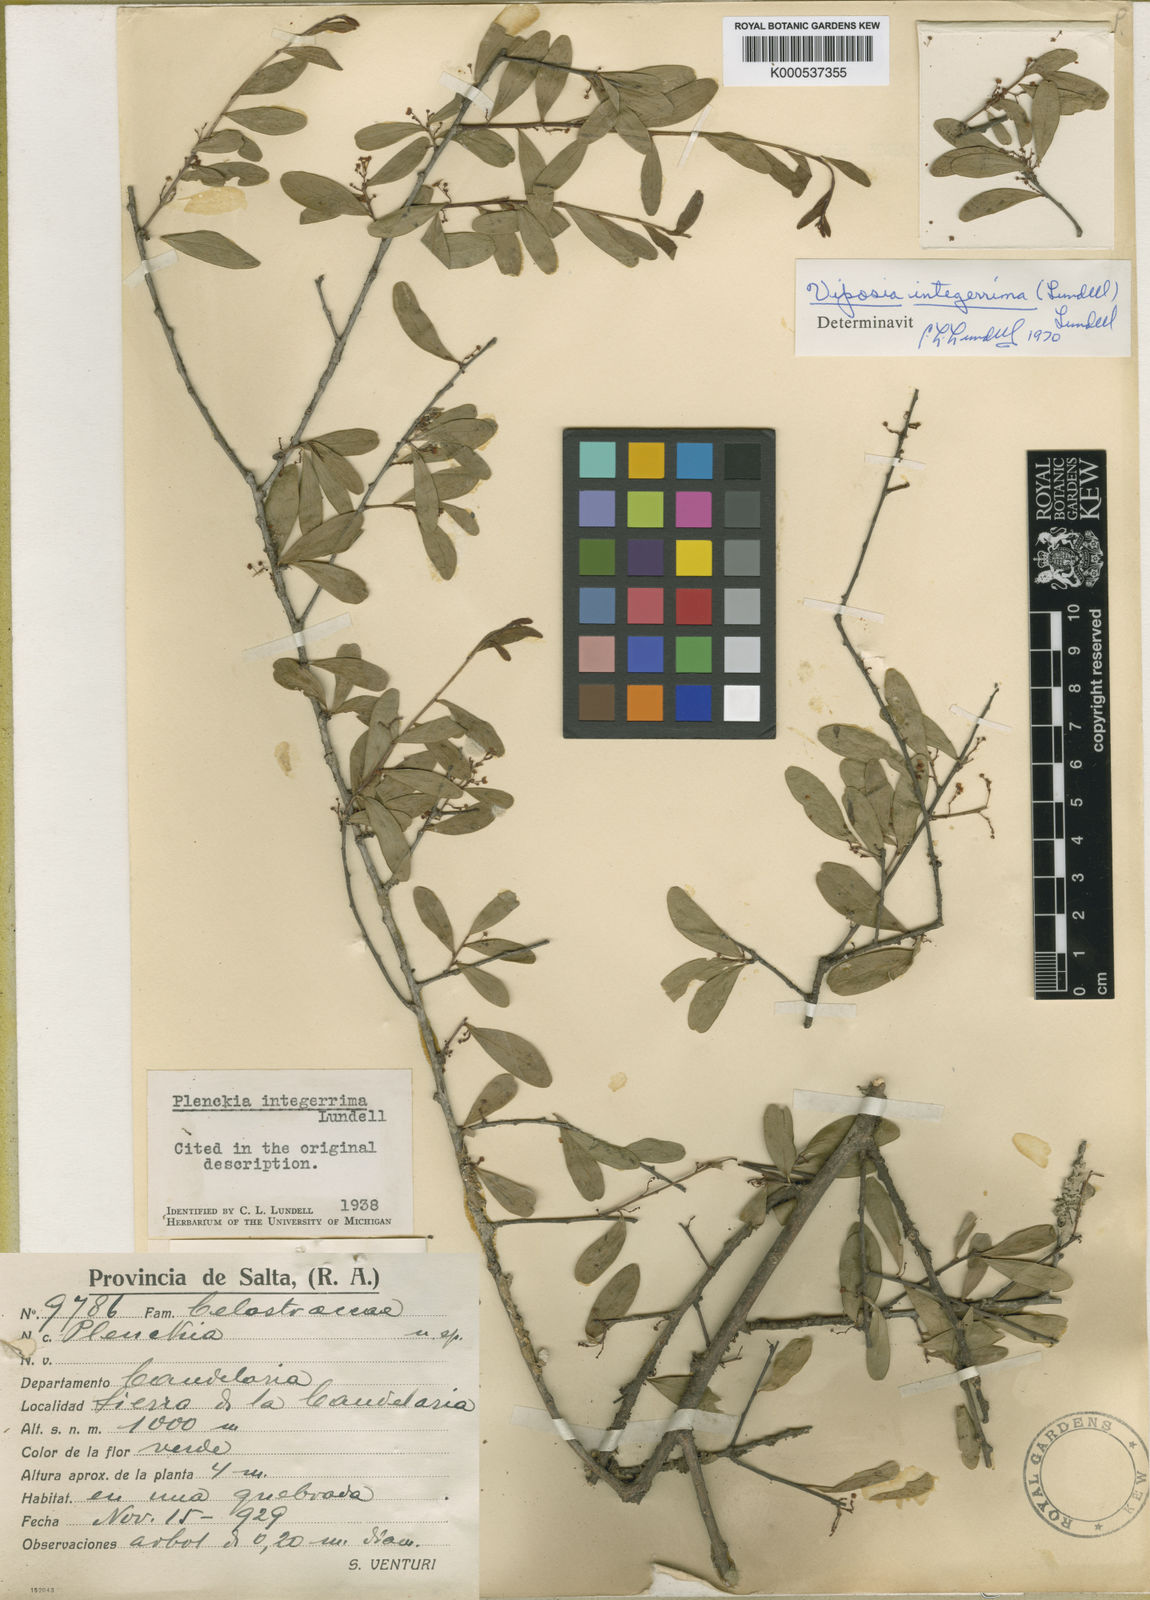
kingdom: Plantae
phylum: Tracheophyta
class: Magnoliopsida
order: Celastrales
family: Celastraceae
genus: Plenckia
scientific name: Plenckia integerrima
